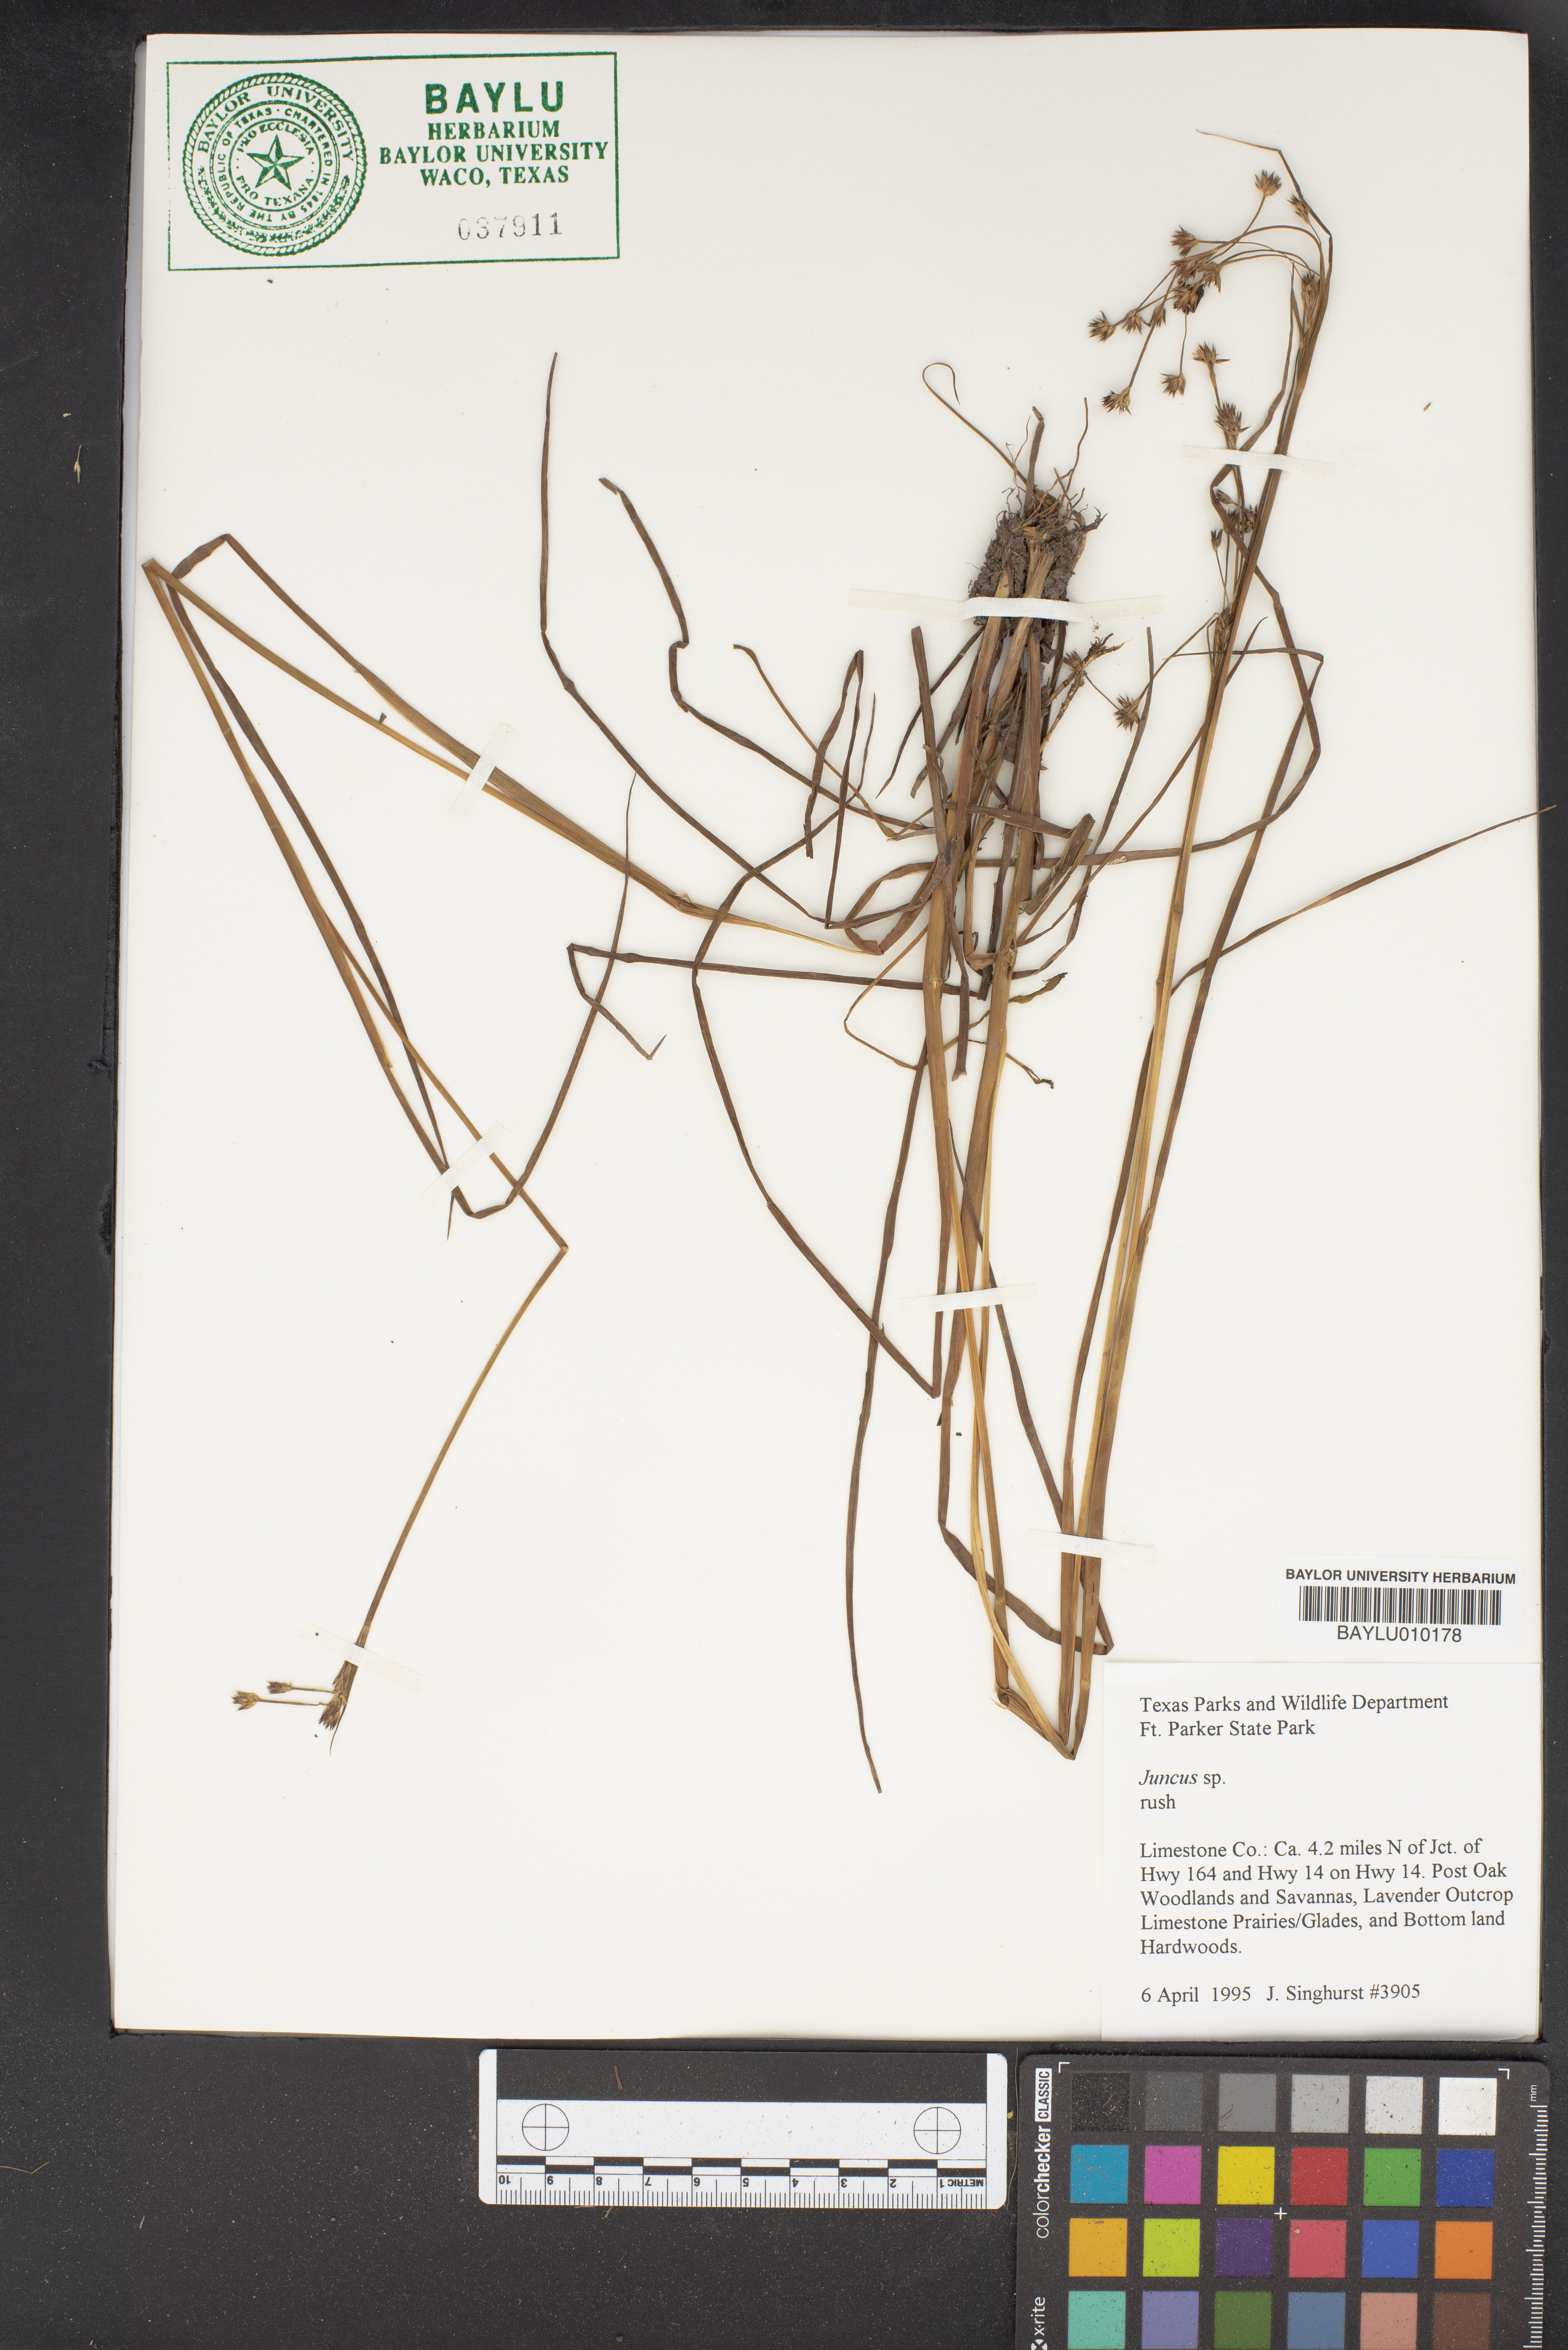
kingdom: Plantae
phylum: Tracheophyta
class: Liliopsida
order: Poales
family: Juncaceae
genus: Juncus
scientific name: Juncus
